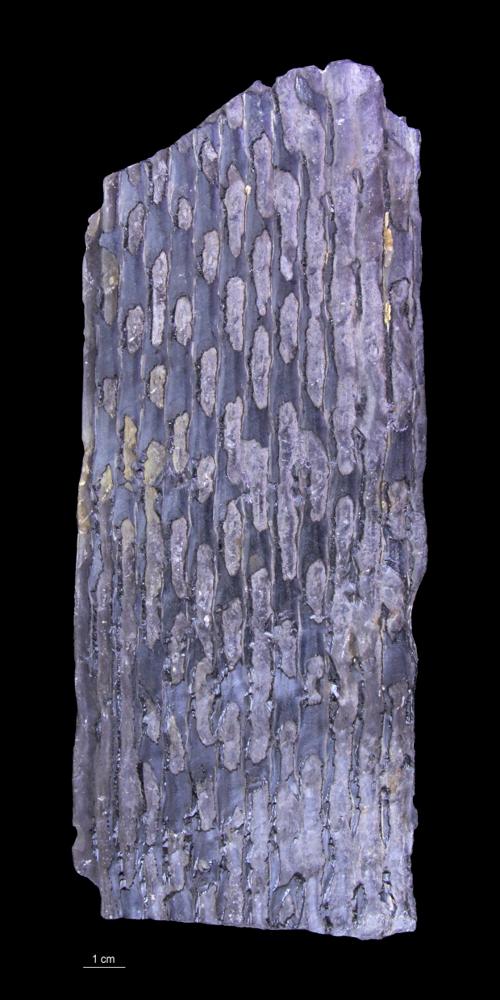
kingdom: Plantae
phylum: Tracheophyta
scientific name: Tracheophyta
